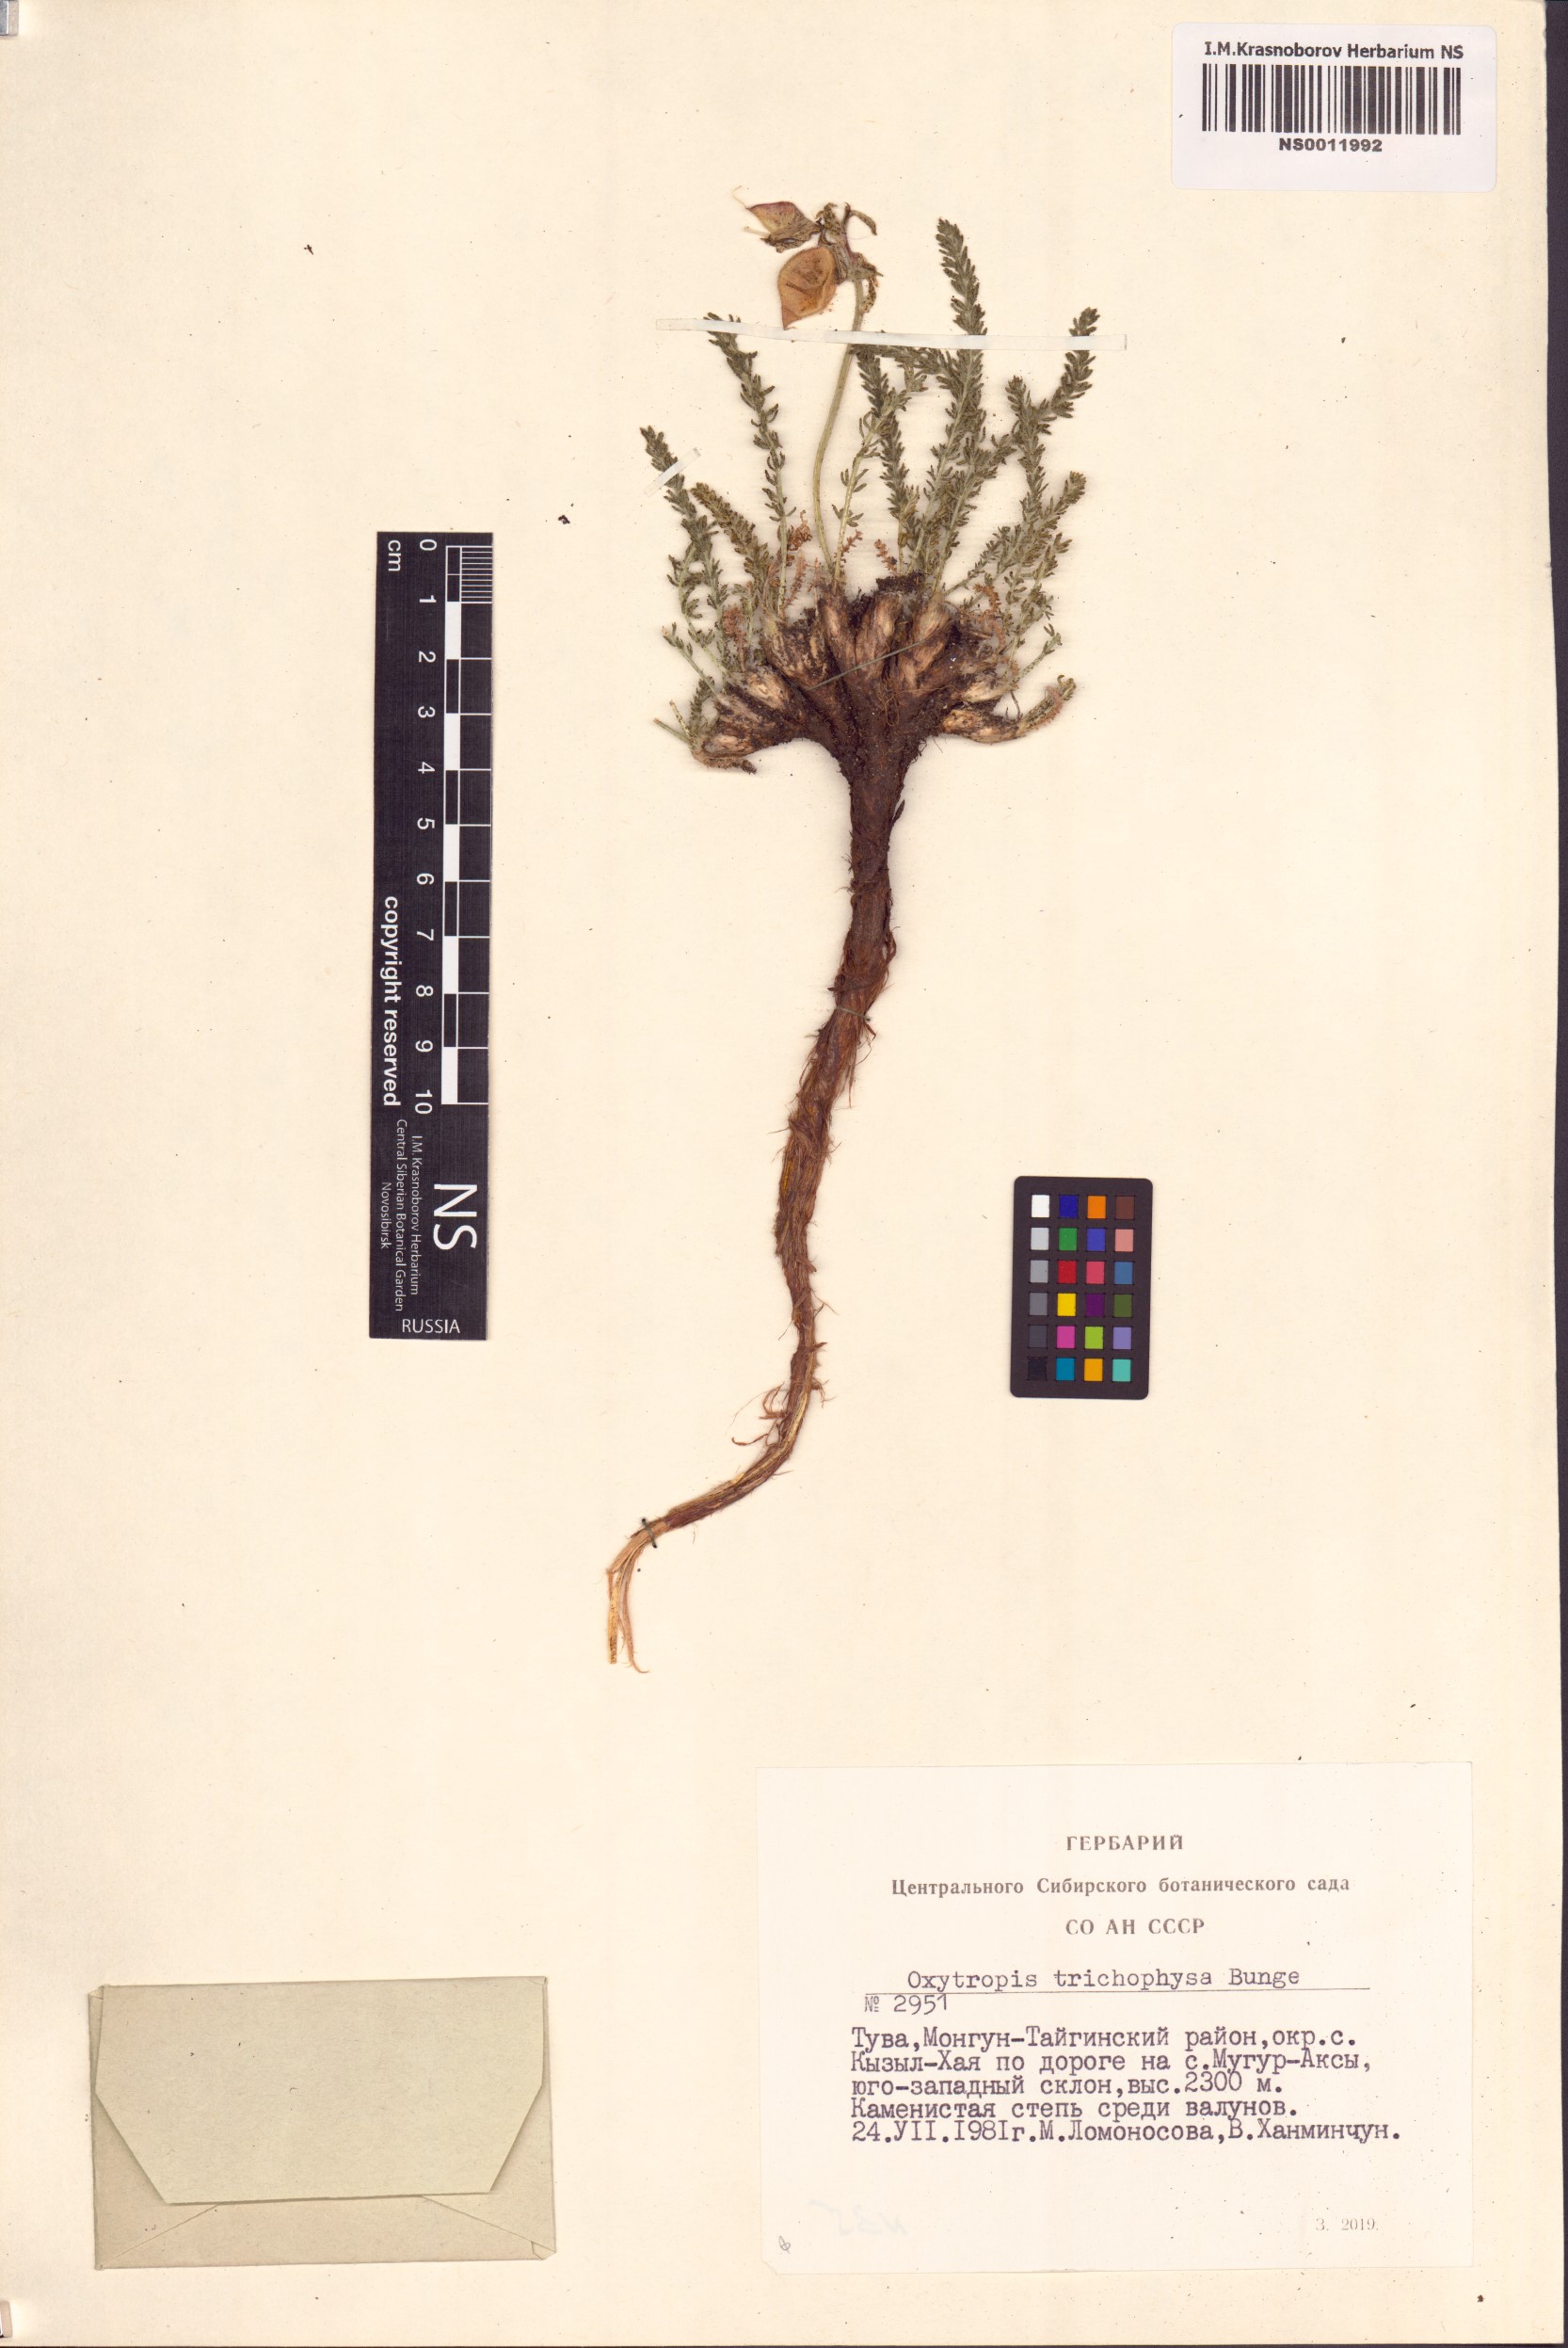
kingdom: Plantae
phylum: Tracheophyta
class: Magnoliopsida
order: Fabales
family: Fabaceae
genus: Oxytropis
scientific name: Oxytropis trichophysa
